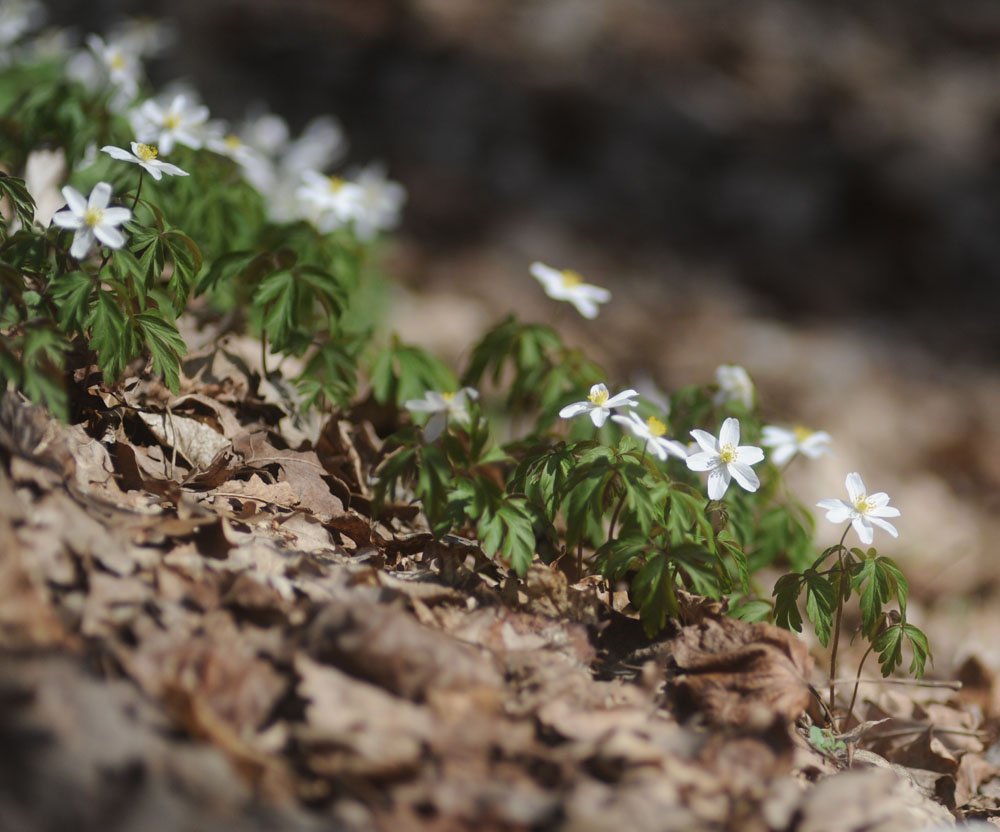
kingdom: Plantae
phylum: Tracheophyta
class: Magnoliopsida
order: Ranunculales
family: Ranunculaceae
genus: Anemone
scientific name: Anemone nemorosa
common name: Wood anemone
